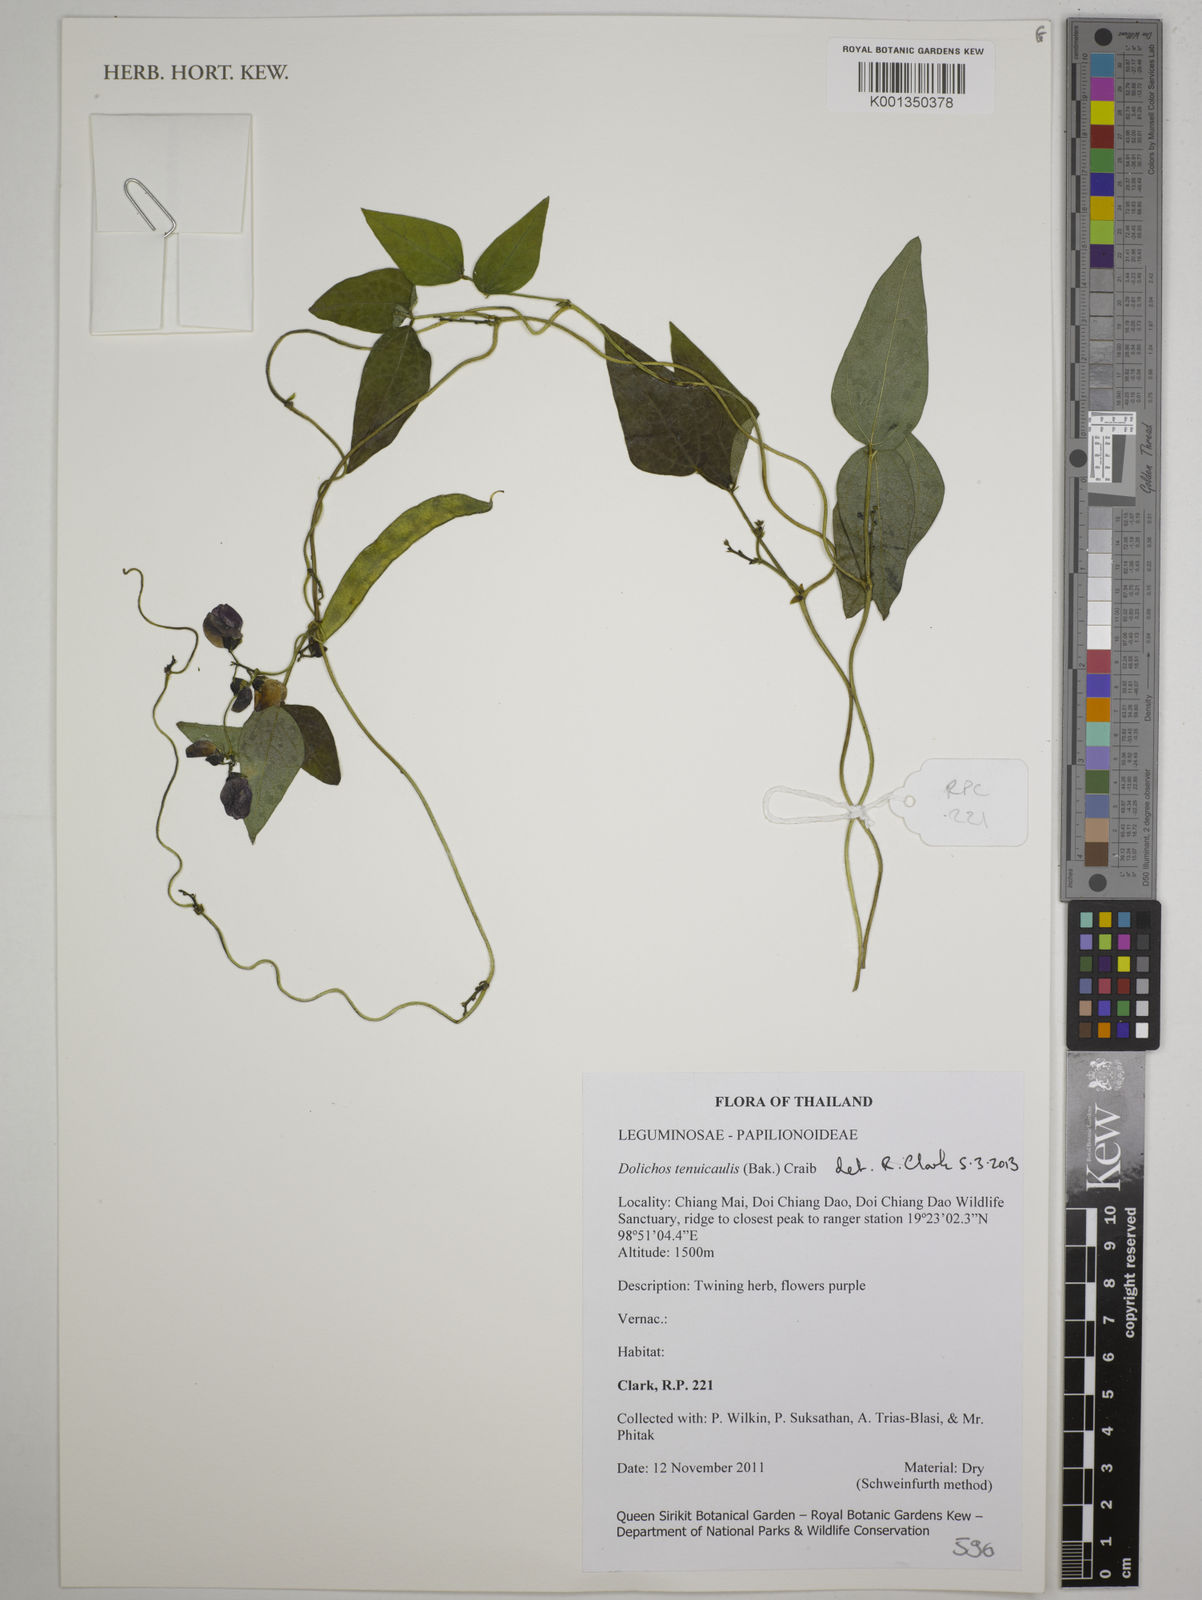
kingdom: Plantae
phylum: Tracheophyta
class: Magnoliopsida
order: Fabales
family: Fabaceae
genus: Dolichos
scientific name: Dolichos tenuicaulis
